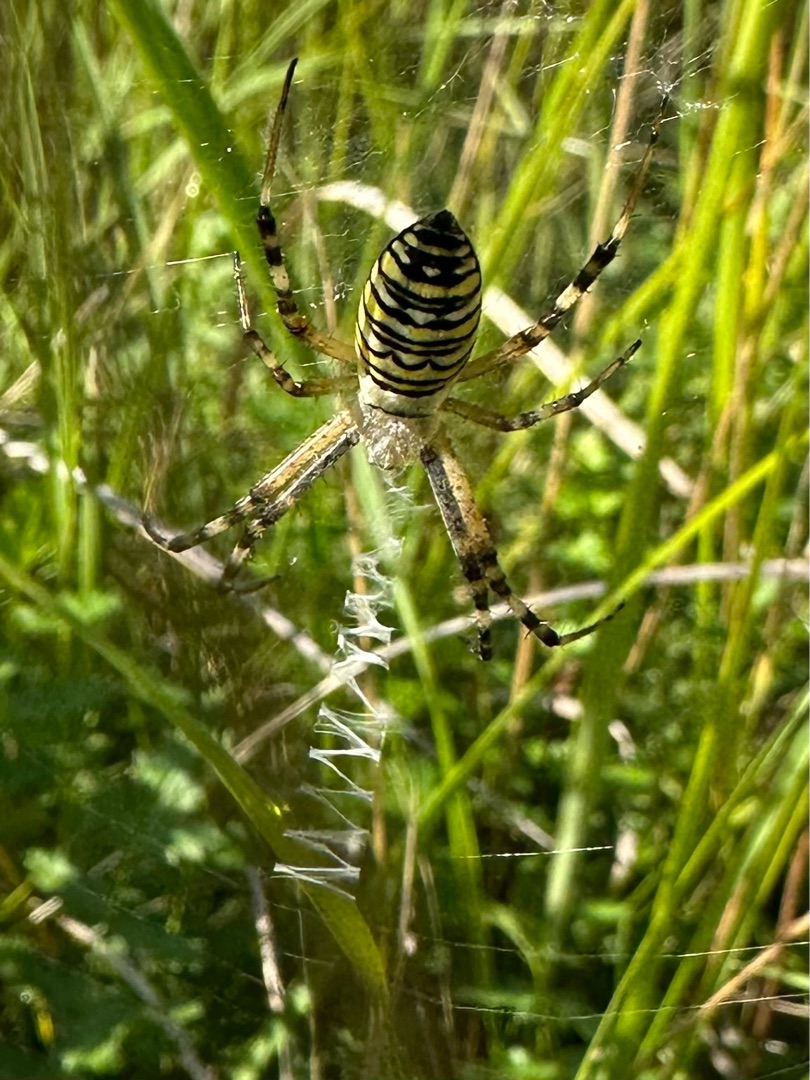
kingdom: Animalia
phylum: Arthropoda
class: Arachnida
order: Araneae
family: Araneidae
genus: Argiope
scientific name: Argiope bruennichi
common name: Hvepseedderkop
